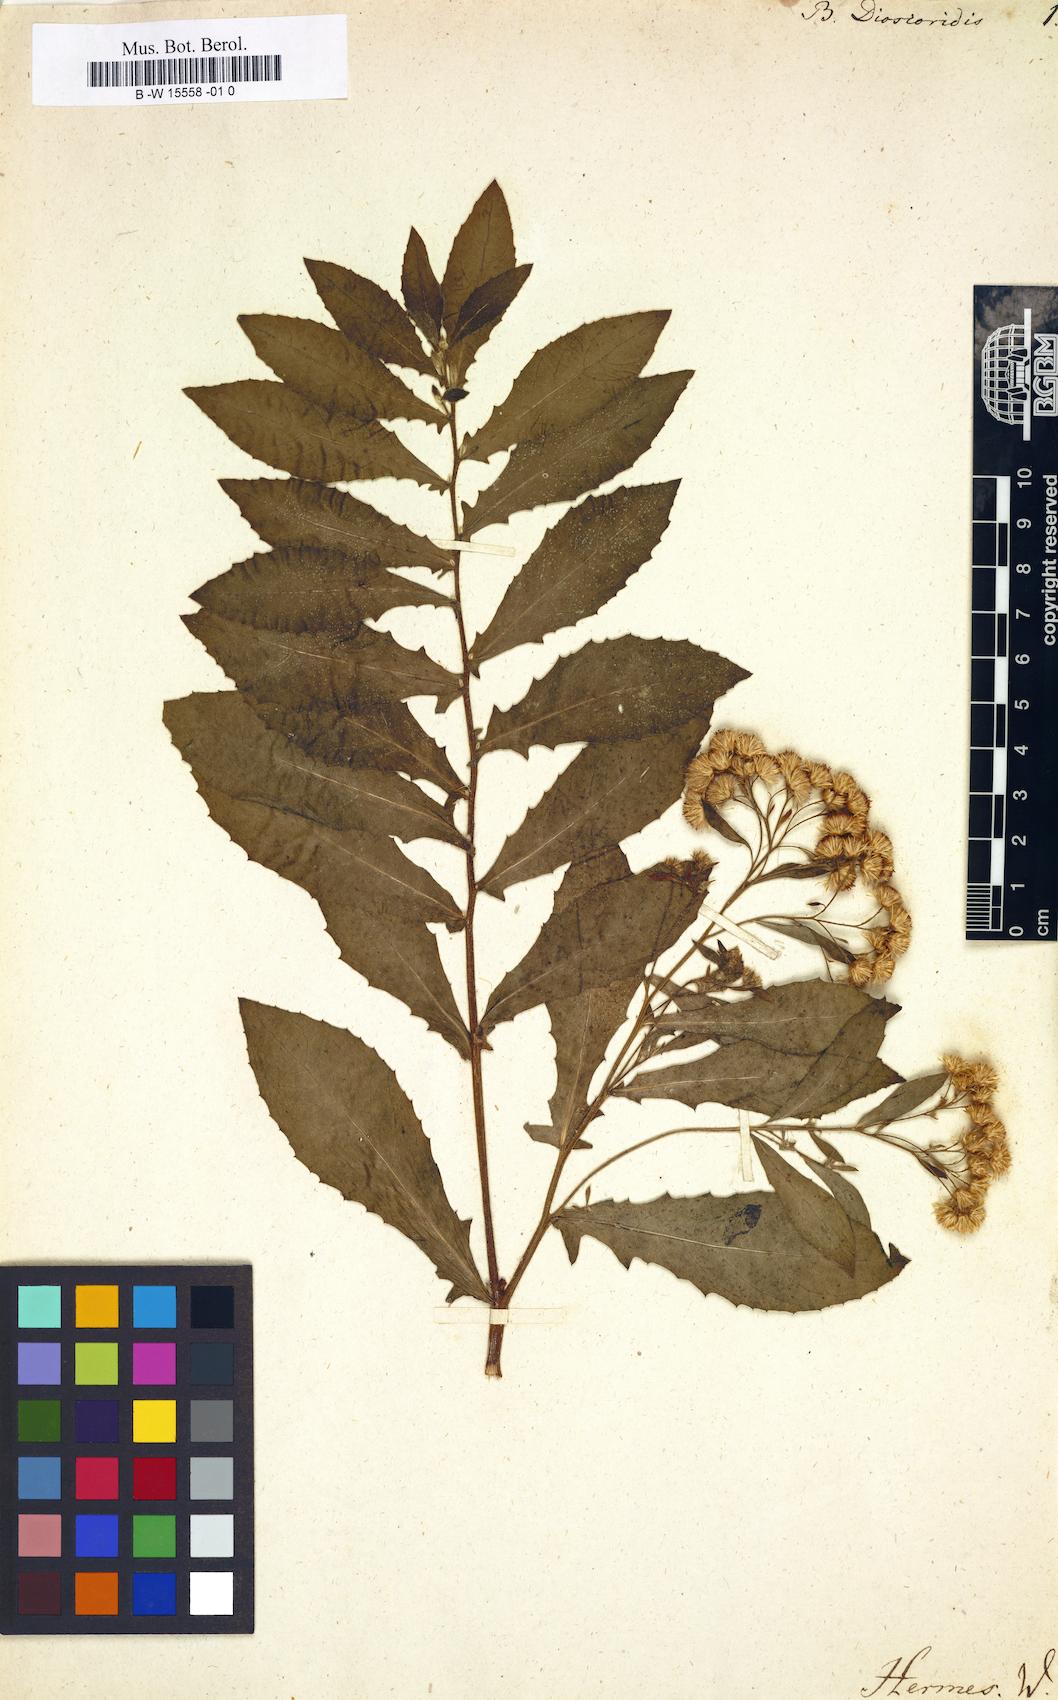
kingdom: Plantae
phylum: Tracheophyta
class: Magnoliopsida
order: Asterales
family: Asteraceae
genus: Pluchea
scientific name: Pluchea dioscoridis
